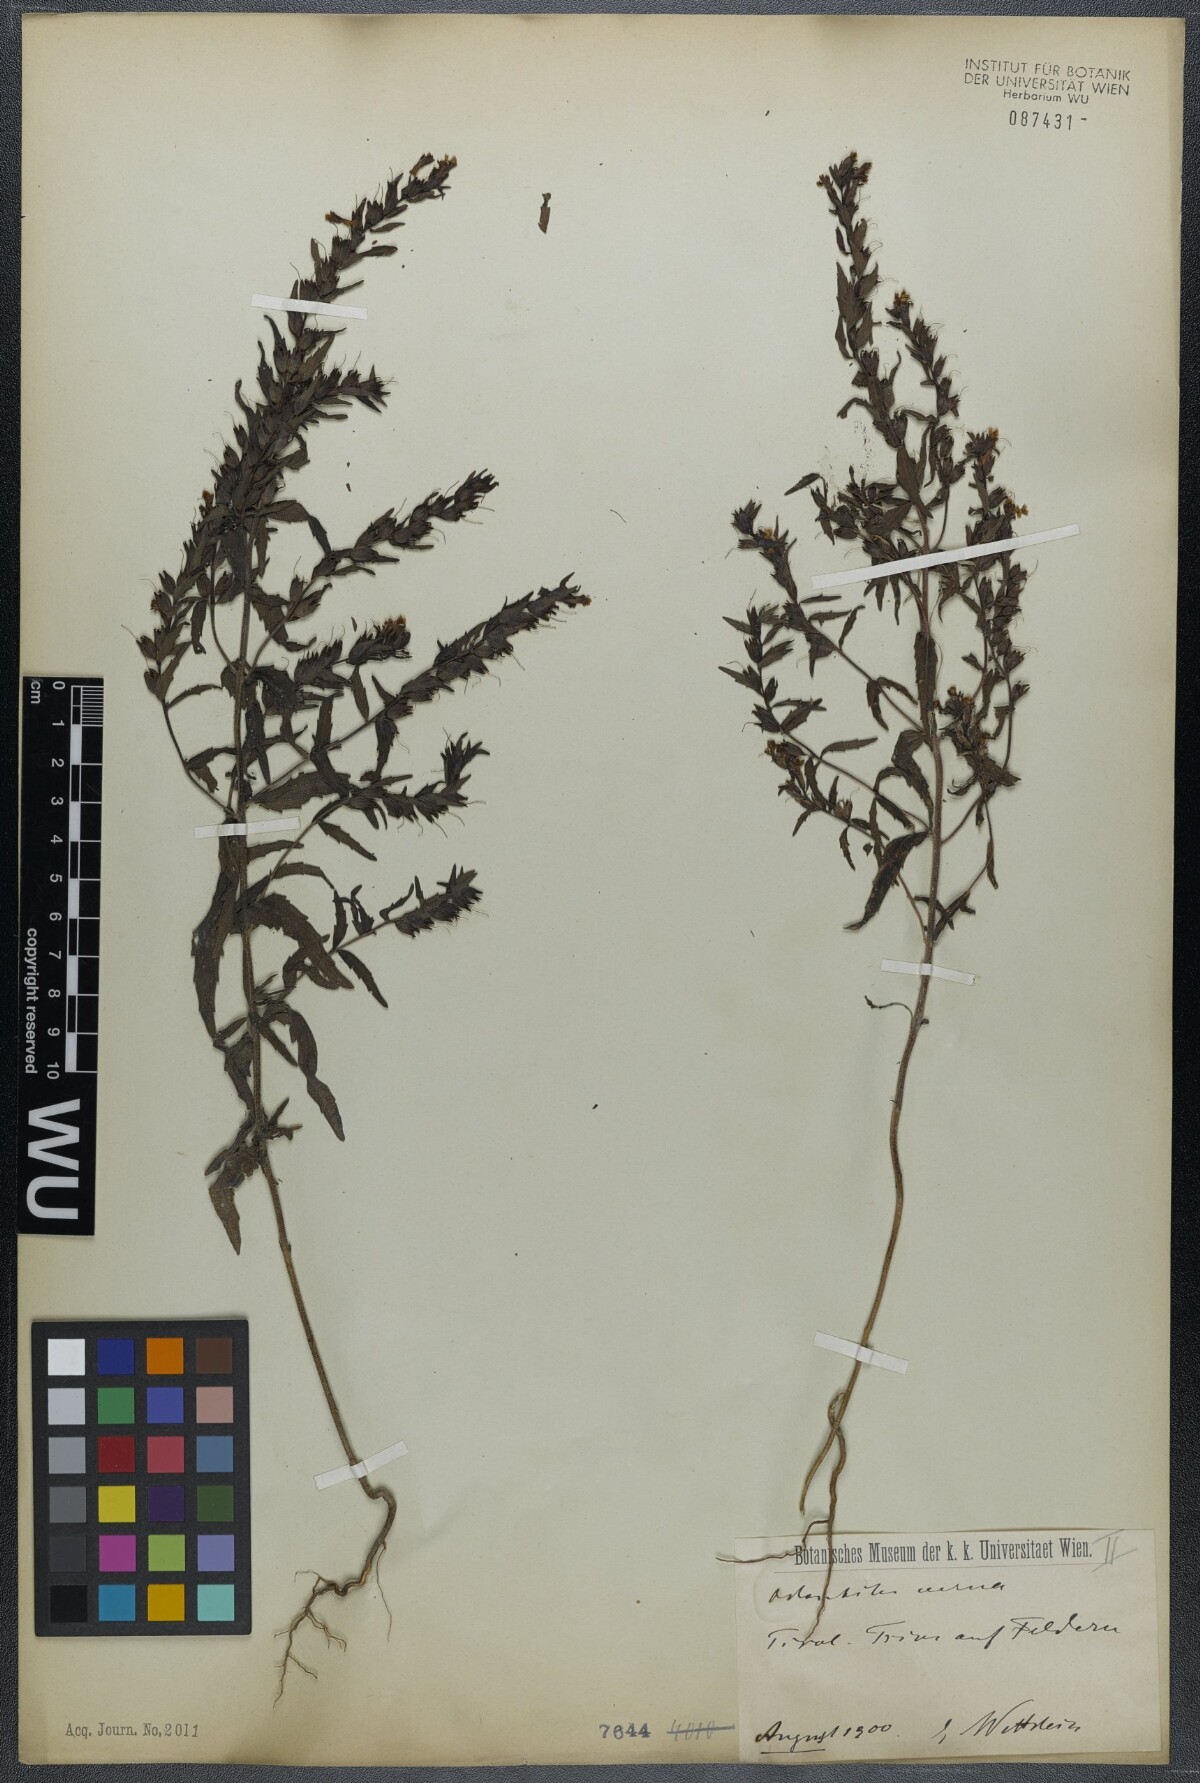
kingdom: Plantae
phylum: Tracheophyta
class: Magnoliopsida
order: Lamiales
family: Orobanchaceae
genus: Odontites
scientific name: Odontites vernus
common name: Red bartsia
